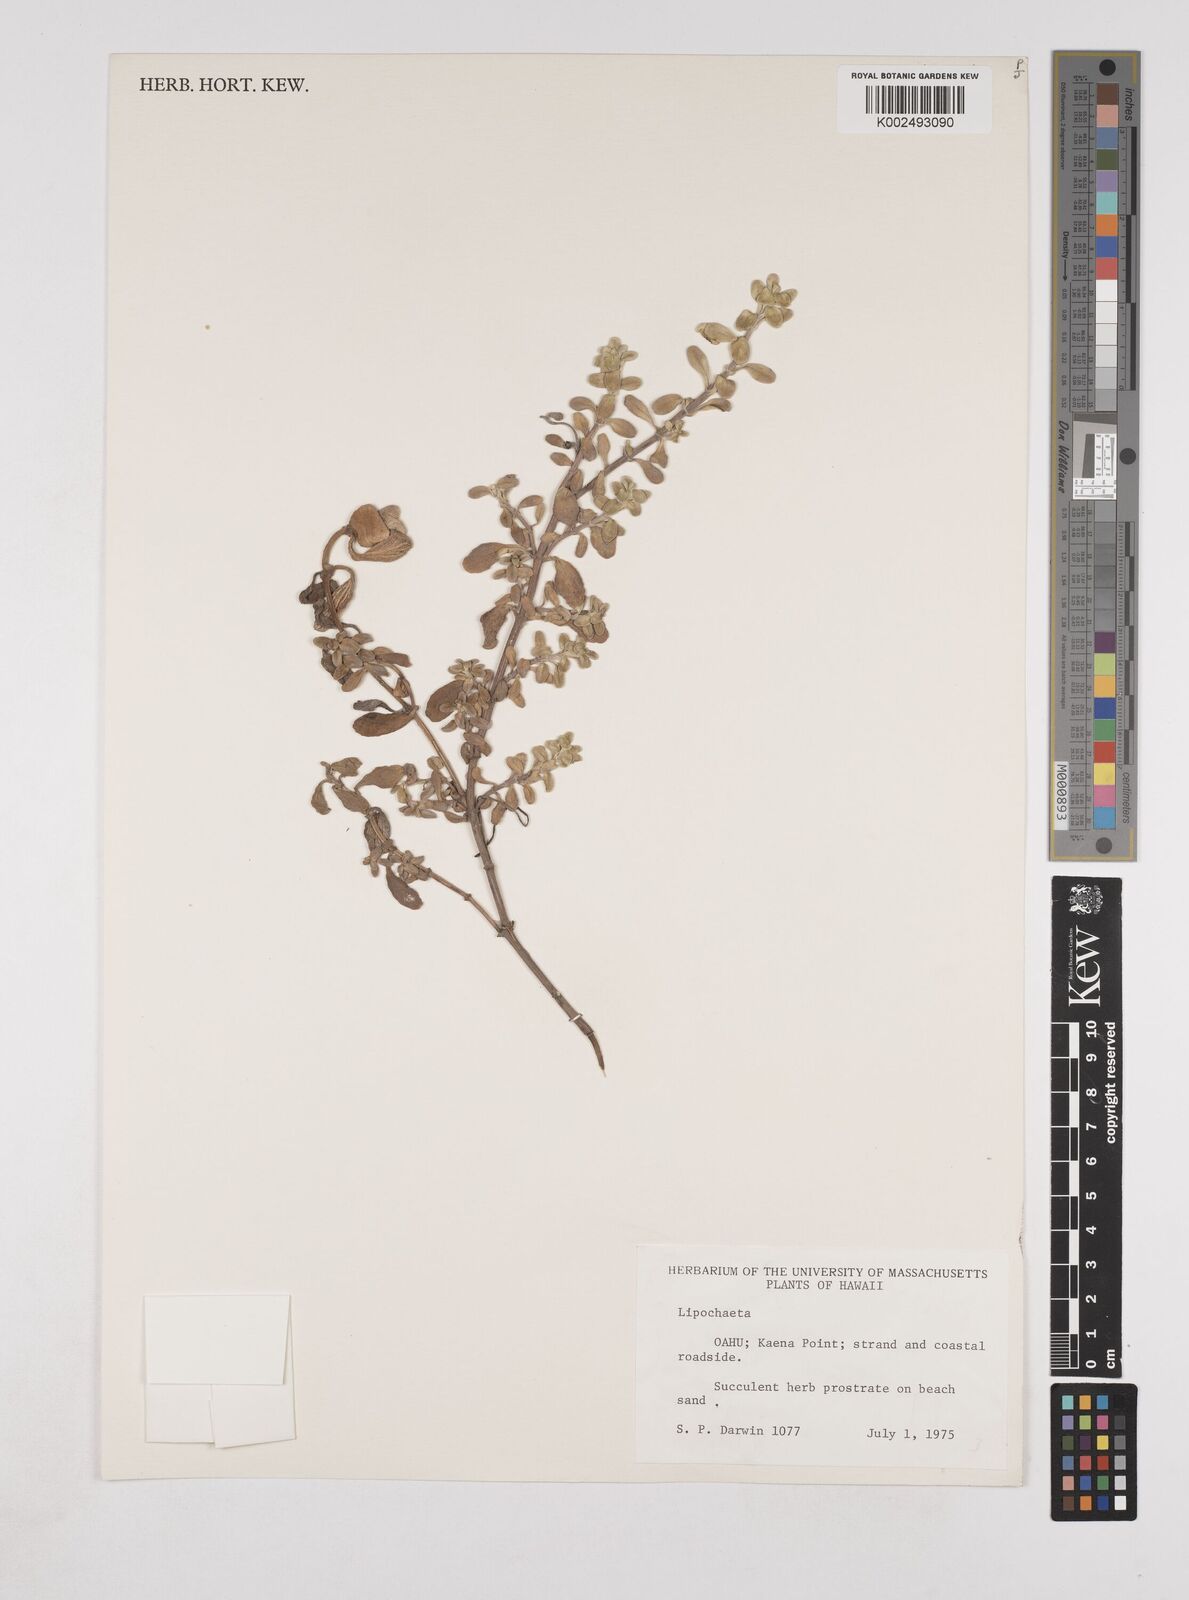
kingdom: Plantae
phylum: Tracheophyta
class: Magnoliopsida
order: Asterales
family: Asteraceae
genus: Lipochaeta
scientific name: Lipochaeta
